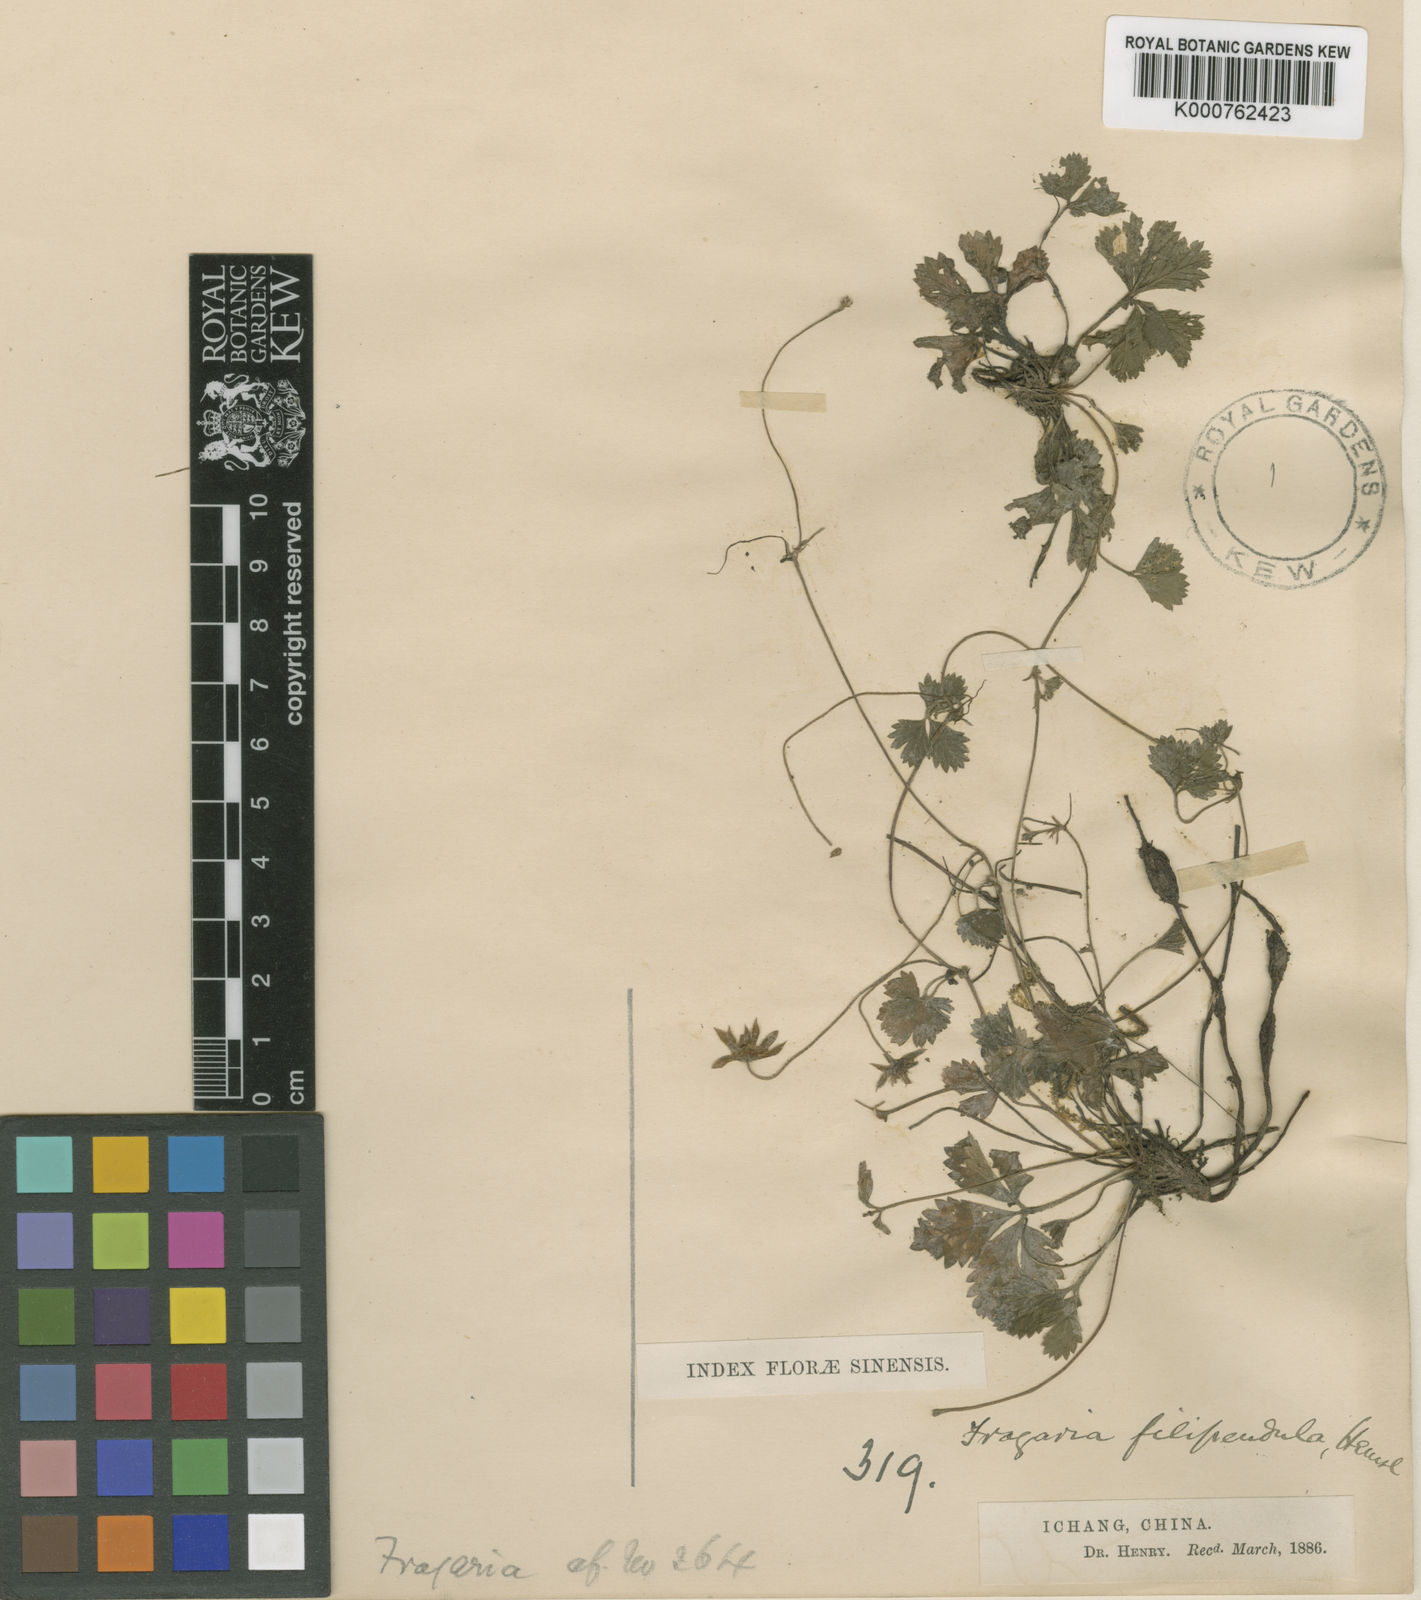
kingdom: Plantae
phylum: Tracheophyta
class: Magnoliopsida
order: Rosales
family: Rosaceae
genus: Potentilla
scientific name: Potentilla filipendula
